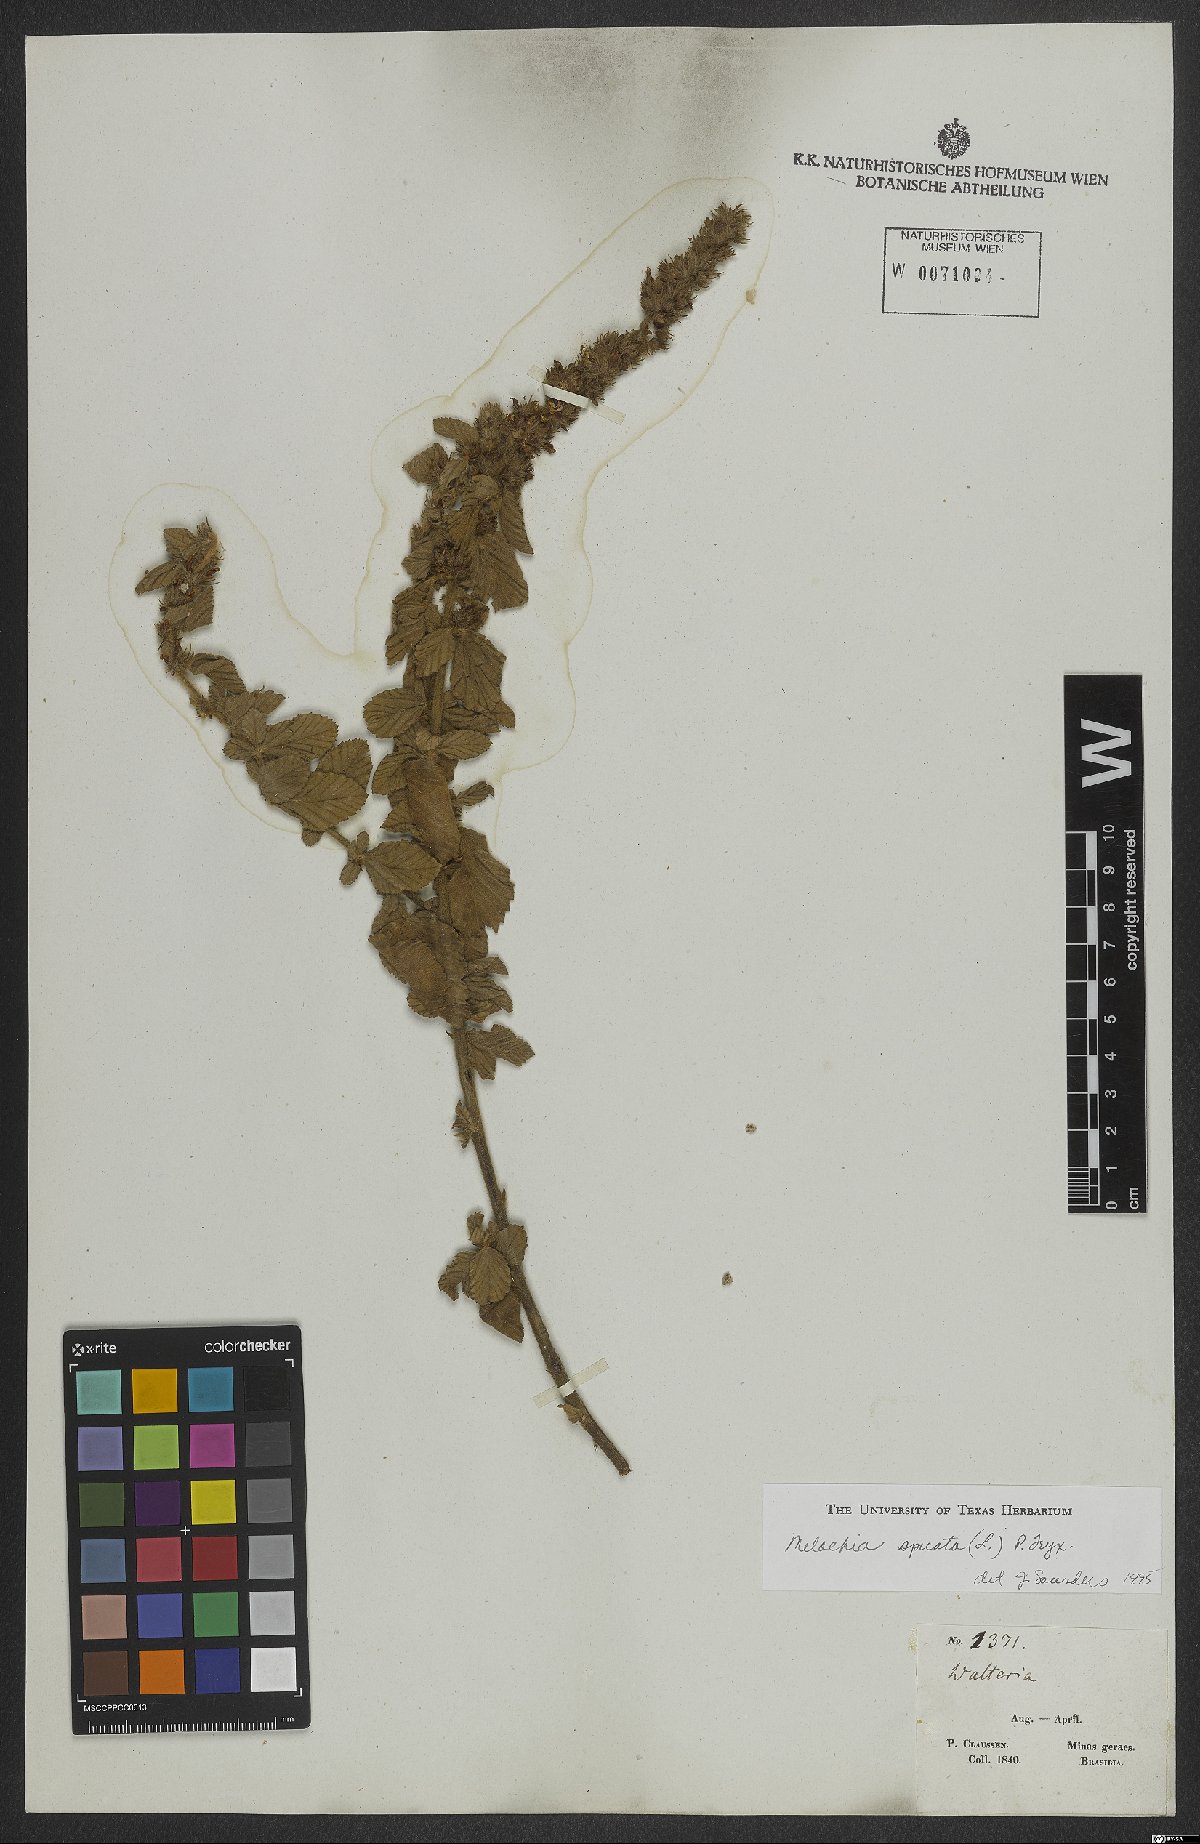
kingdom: Plantae
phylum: Tracheophyta
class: Magnoliopsida
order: Malvales
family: Malvaceae
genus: Melochia
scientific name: Melochia spicata
